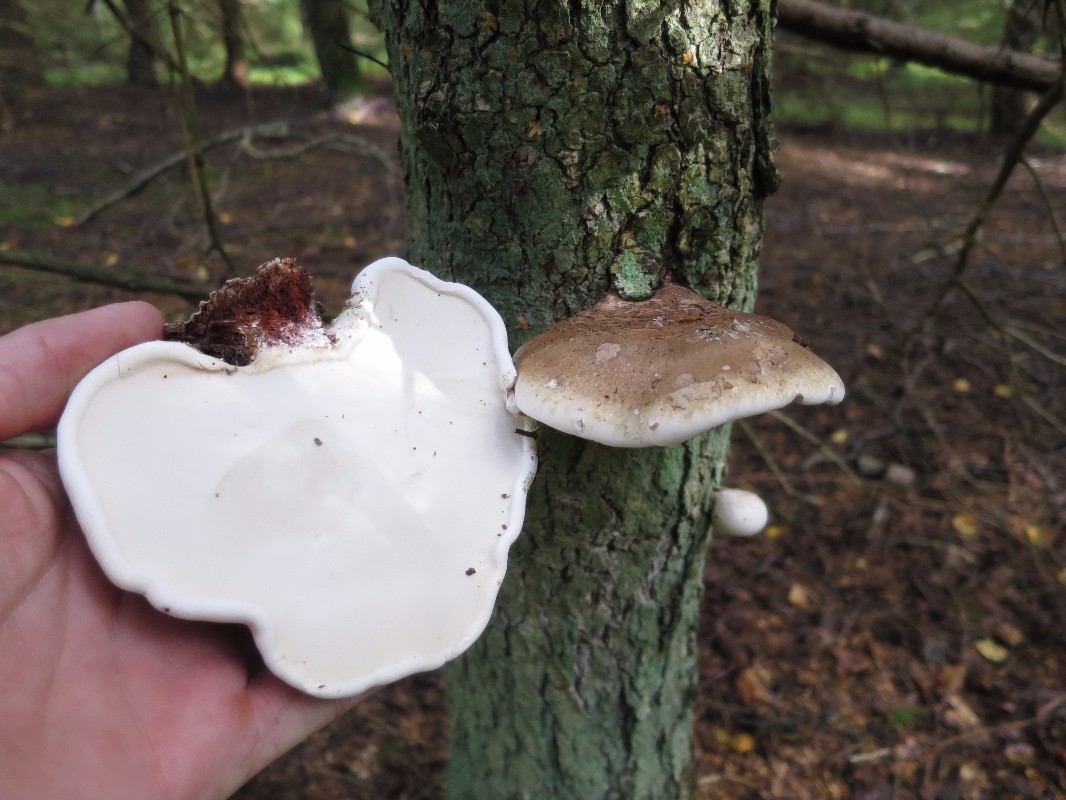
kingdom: Fungi
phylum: Basidiomycota
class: Agaricomycetes
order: Polyporales
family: Fomitopsidaceae
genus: Fomitopsis
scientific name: Fomitopsis betulina
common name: birkeporesvamp
